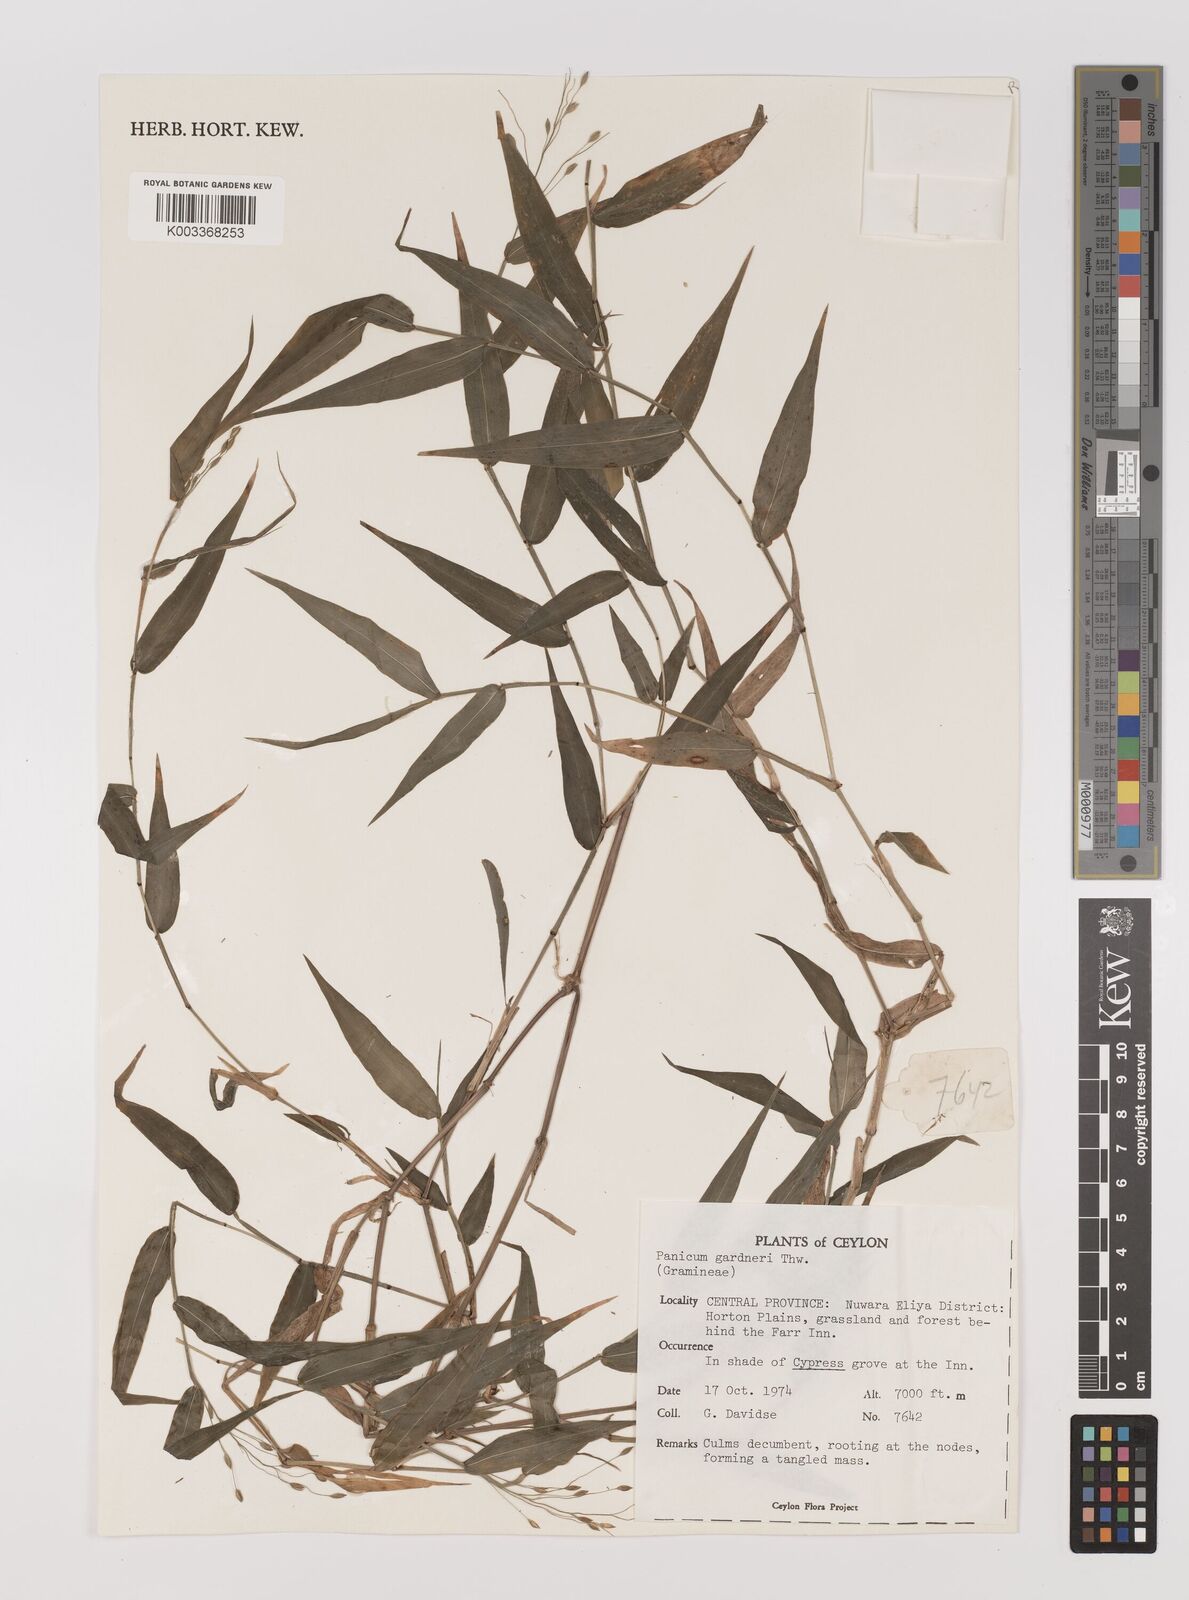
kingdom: Plantae
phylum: Tracheophyta
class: Liliopsida
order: Poales
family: Poaceae
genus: Panicum
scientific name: Panicum gardneri
